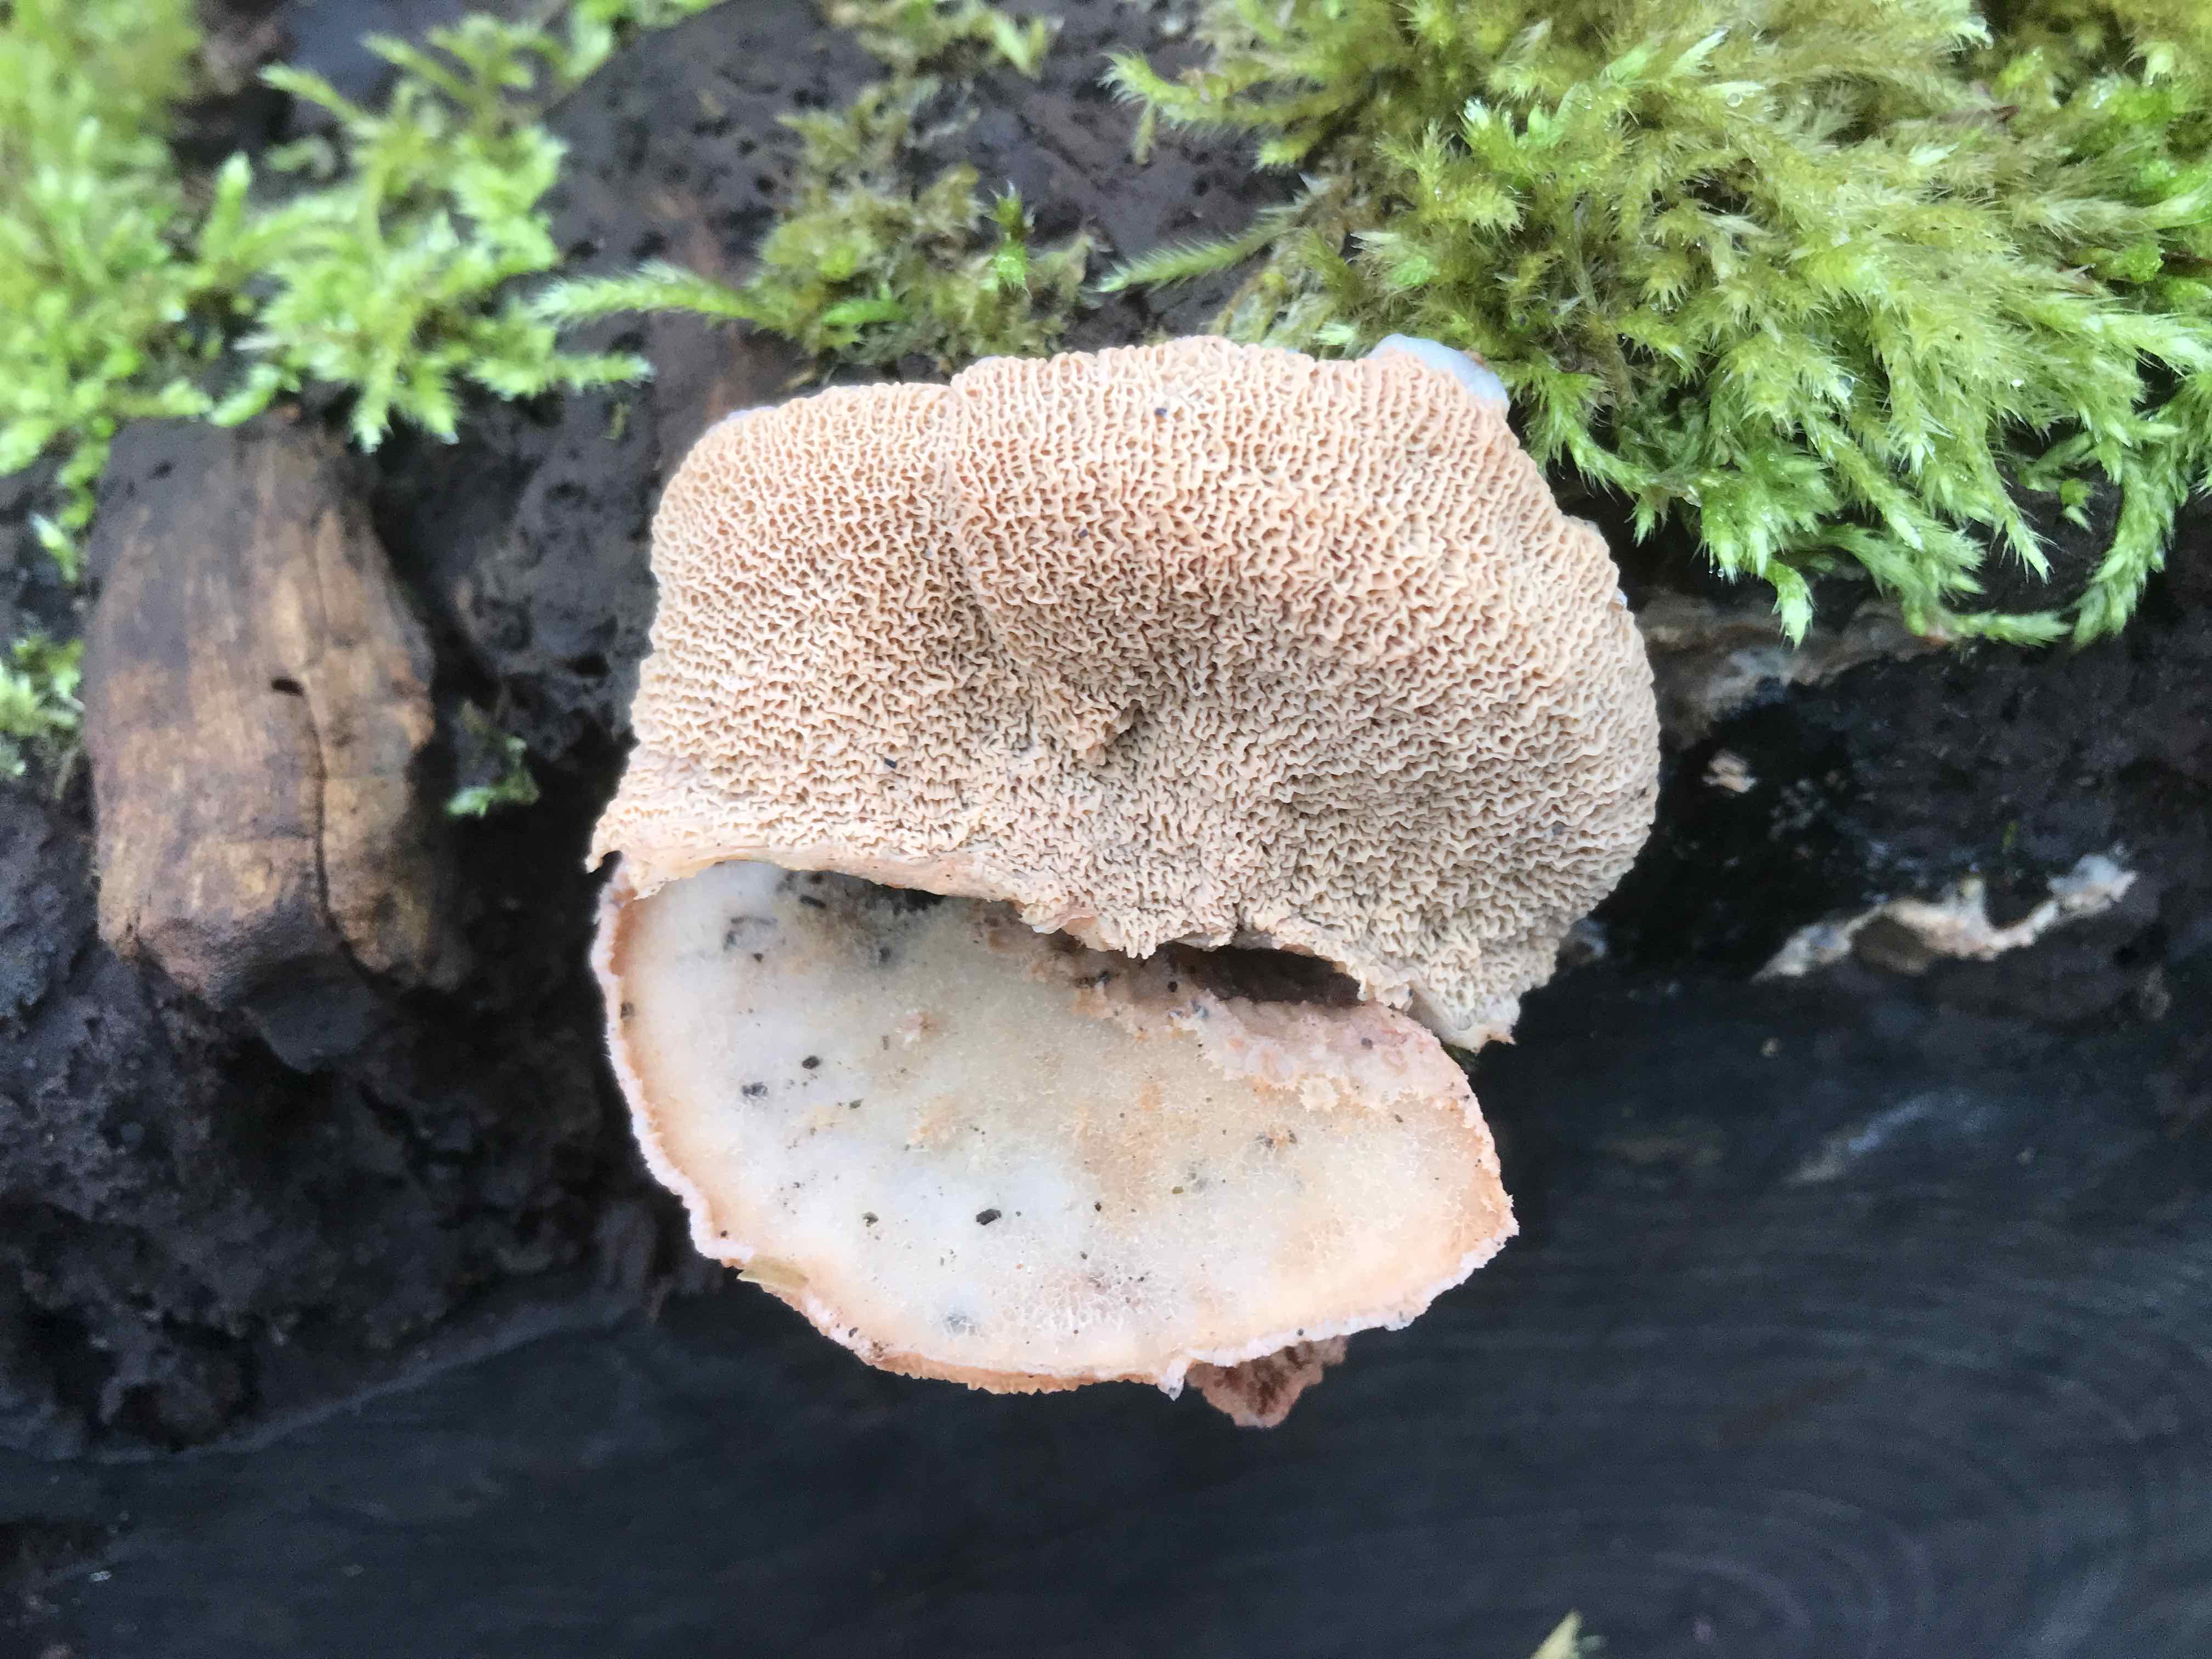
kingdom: Fungi
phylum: Basidiomycota
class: Agaricomycetes
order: Polyporales
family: Meruliaceae
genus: Phlebia
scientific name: Phlebia tremellosa
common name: bævrende åresvamp
